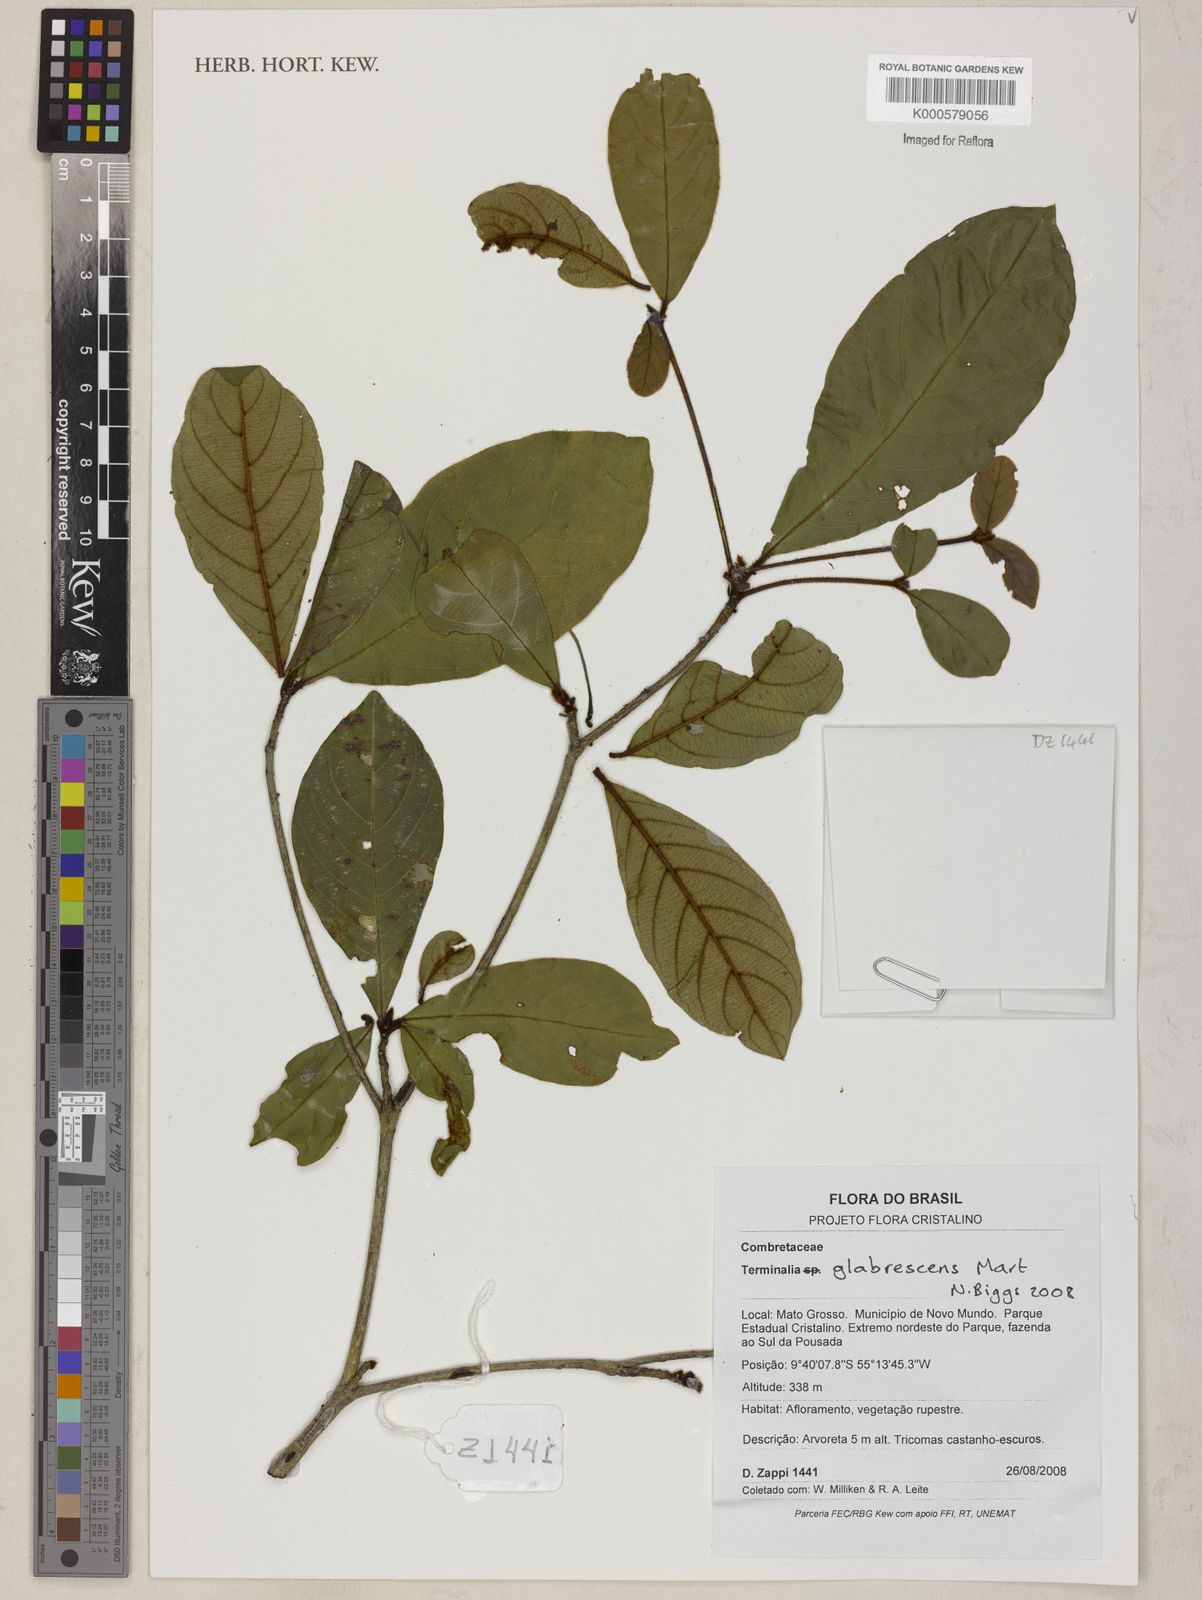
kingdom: Plantae
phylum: Tracheophyta
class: Magnoliopsida
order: Myrtales
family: Combretaceae
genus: Terminalia
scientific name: Terminalia glabrescens
